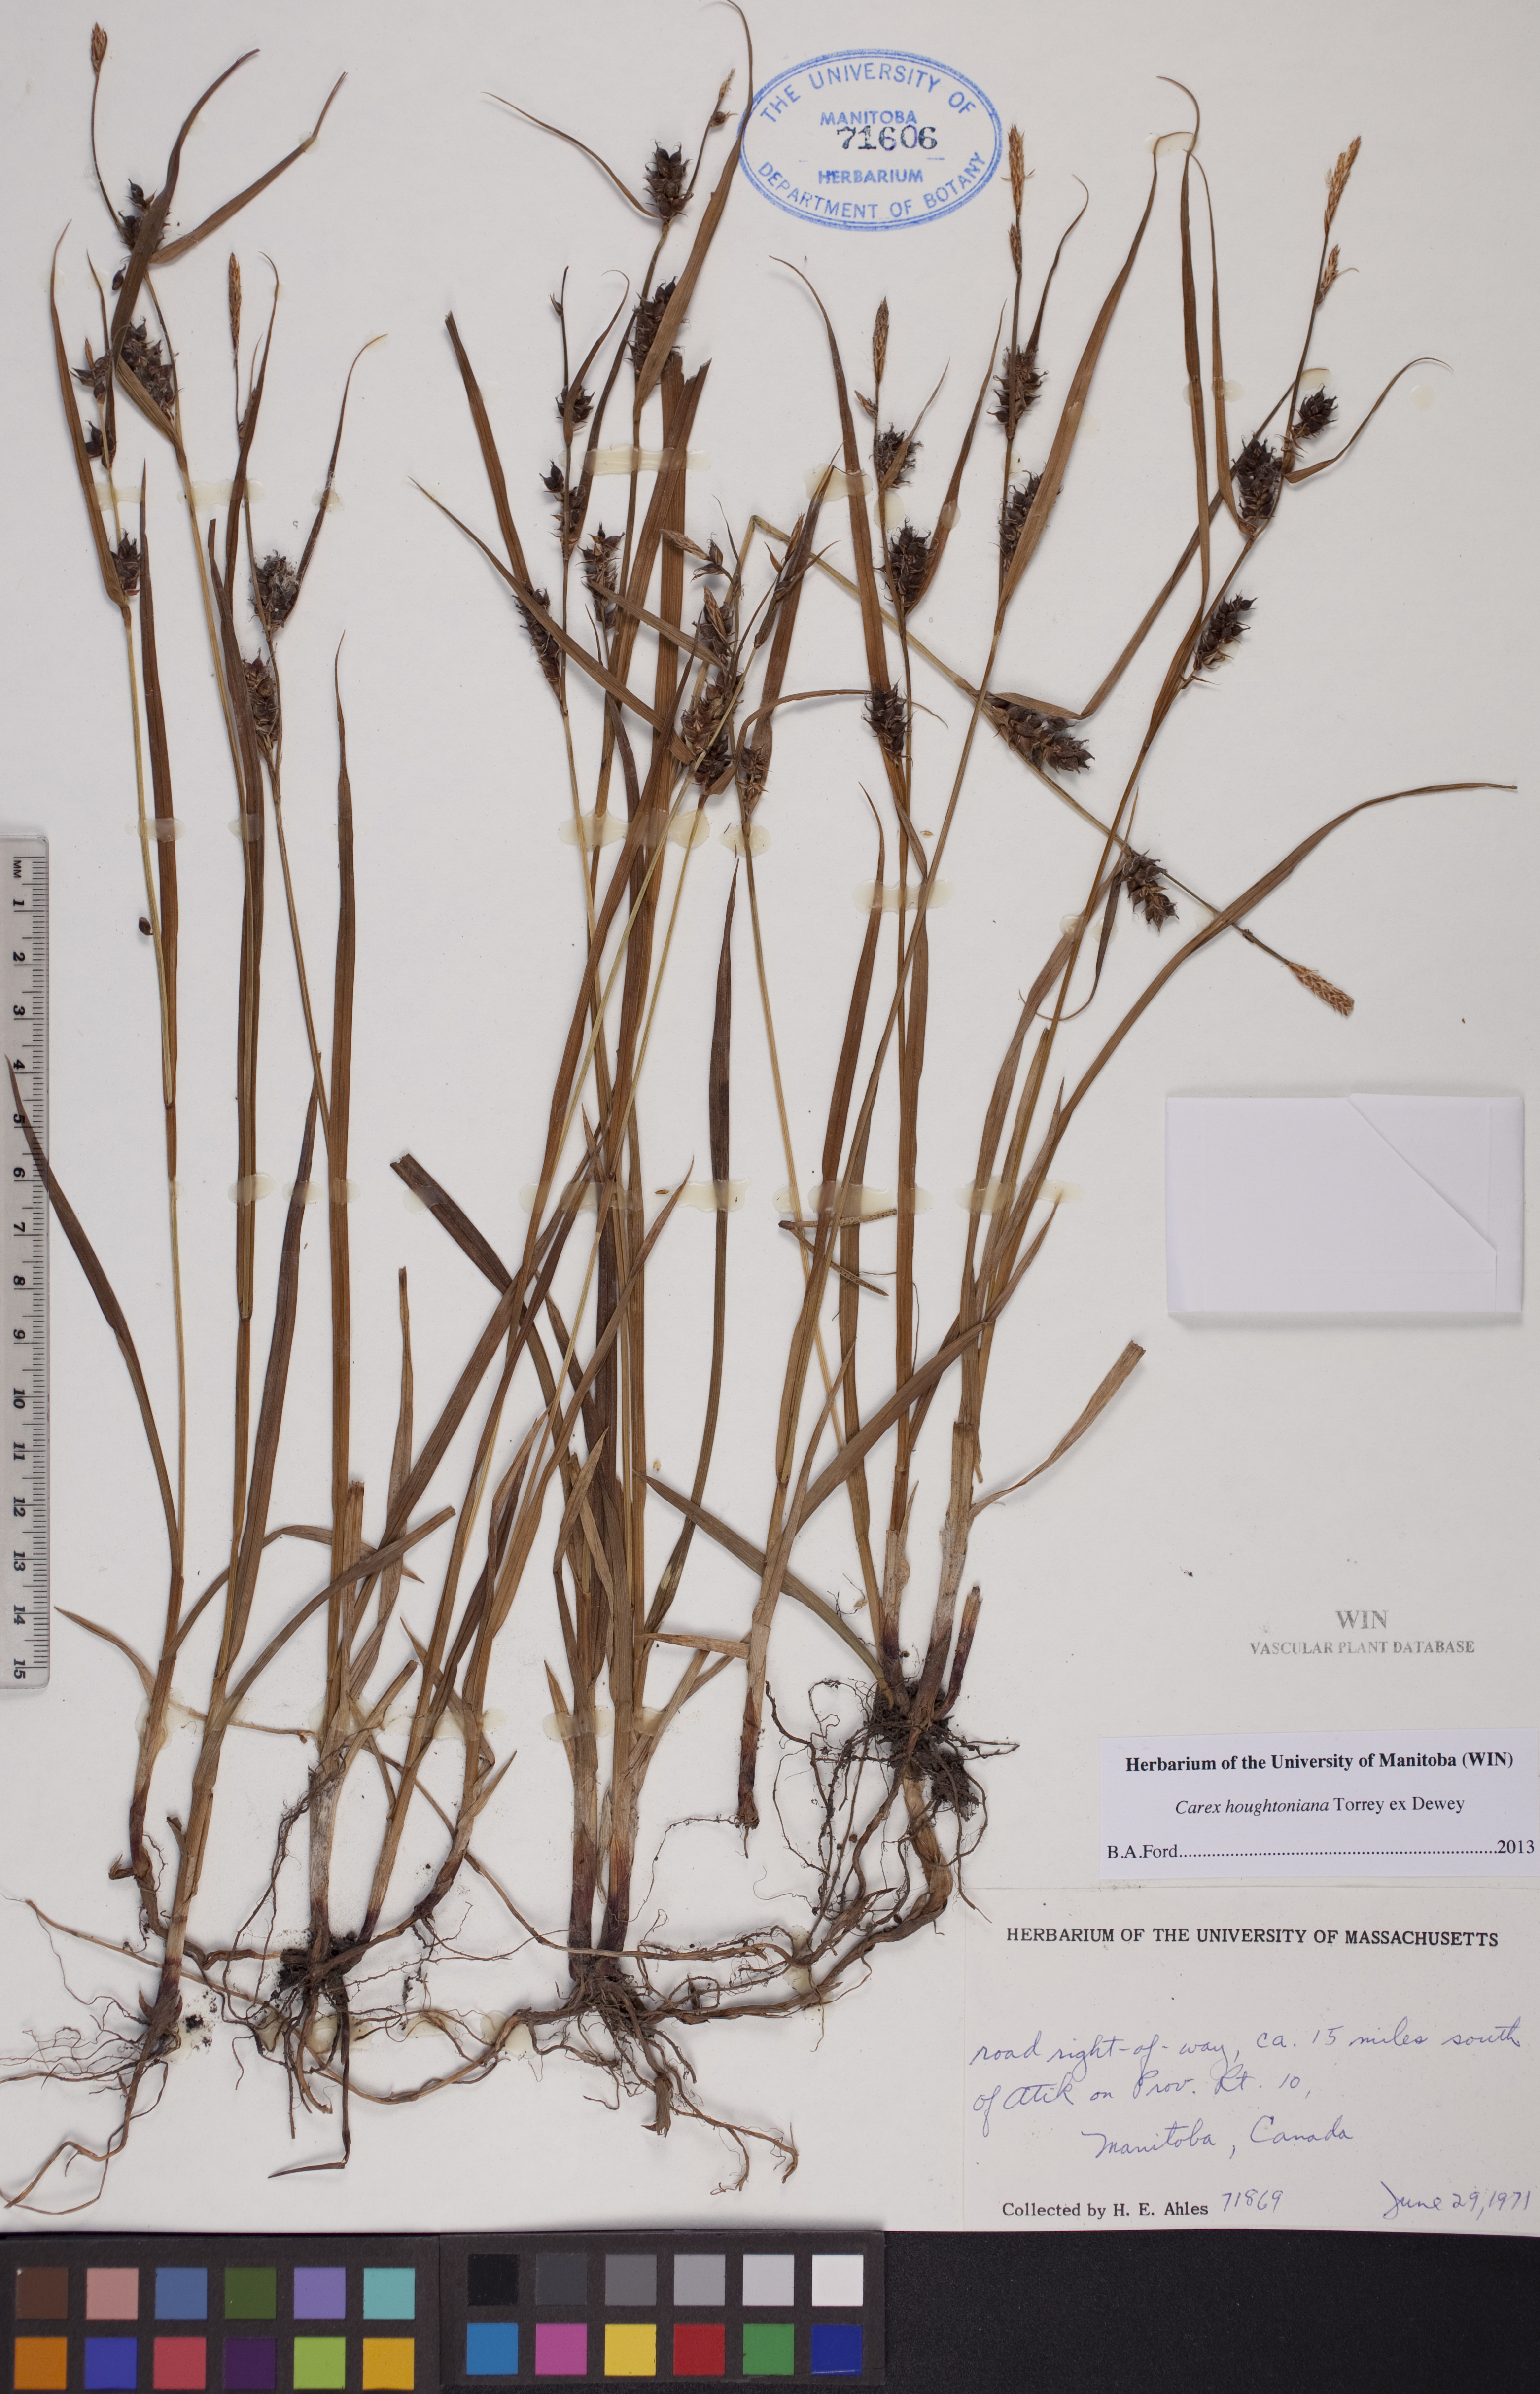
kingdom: Plantae
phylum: Tracheophyta
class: Liliopsida
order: Poales
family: Cyperaceae
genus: Carex
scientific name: Carex houghtoniana
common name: Houghton's sedge
